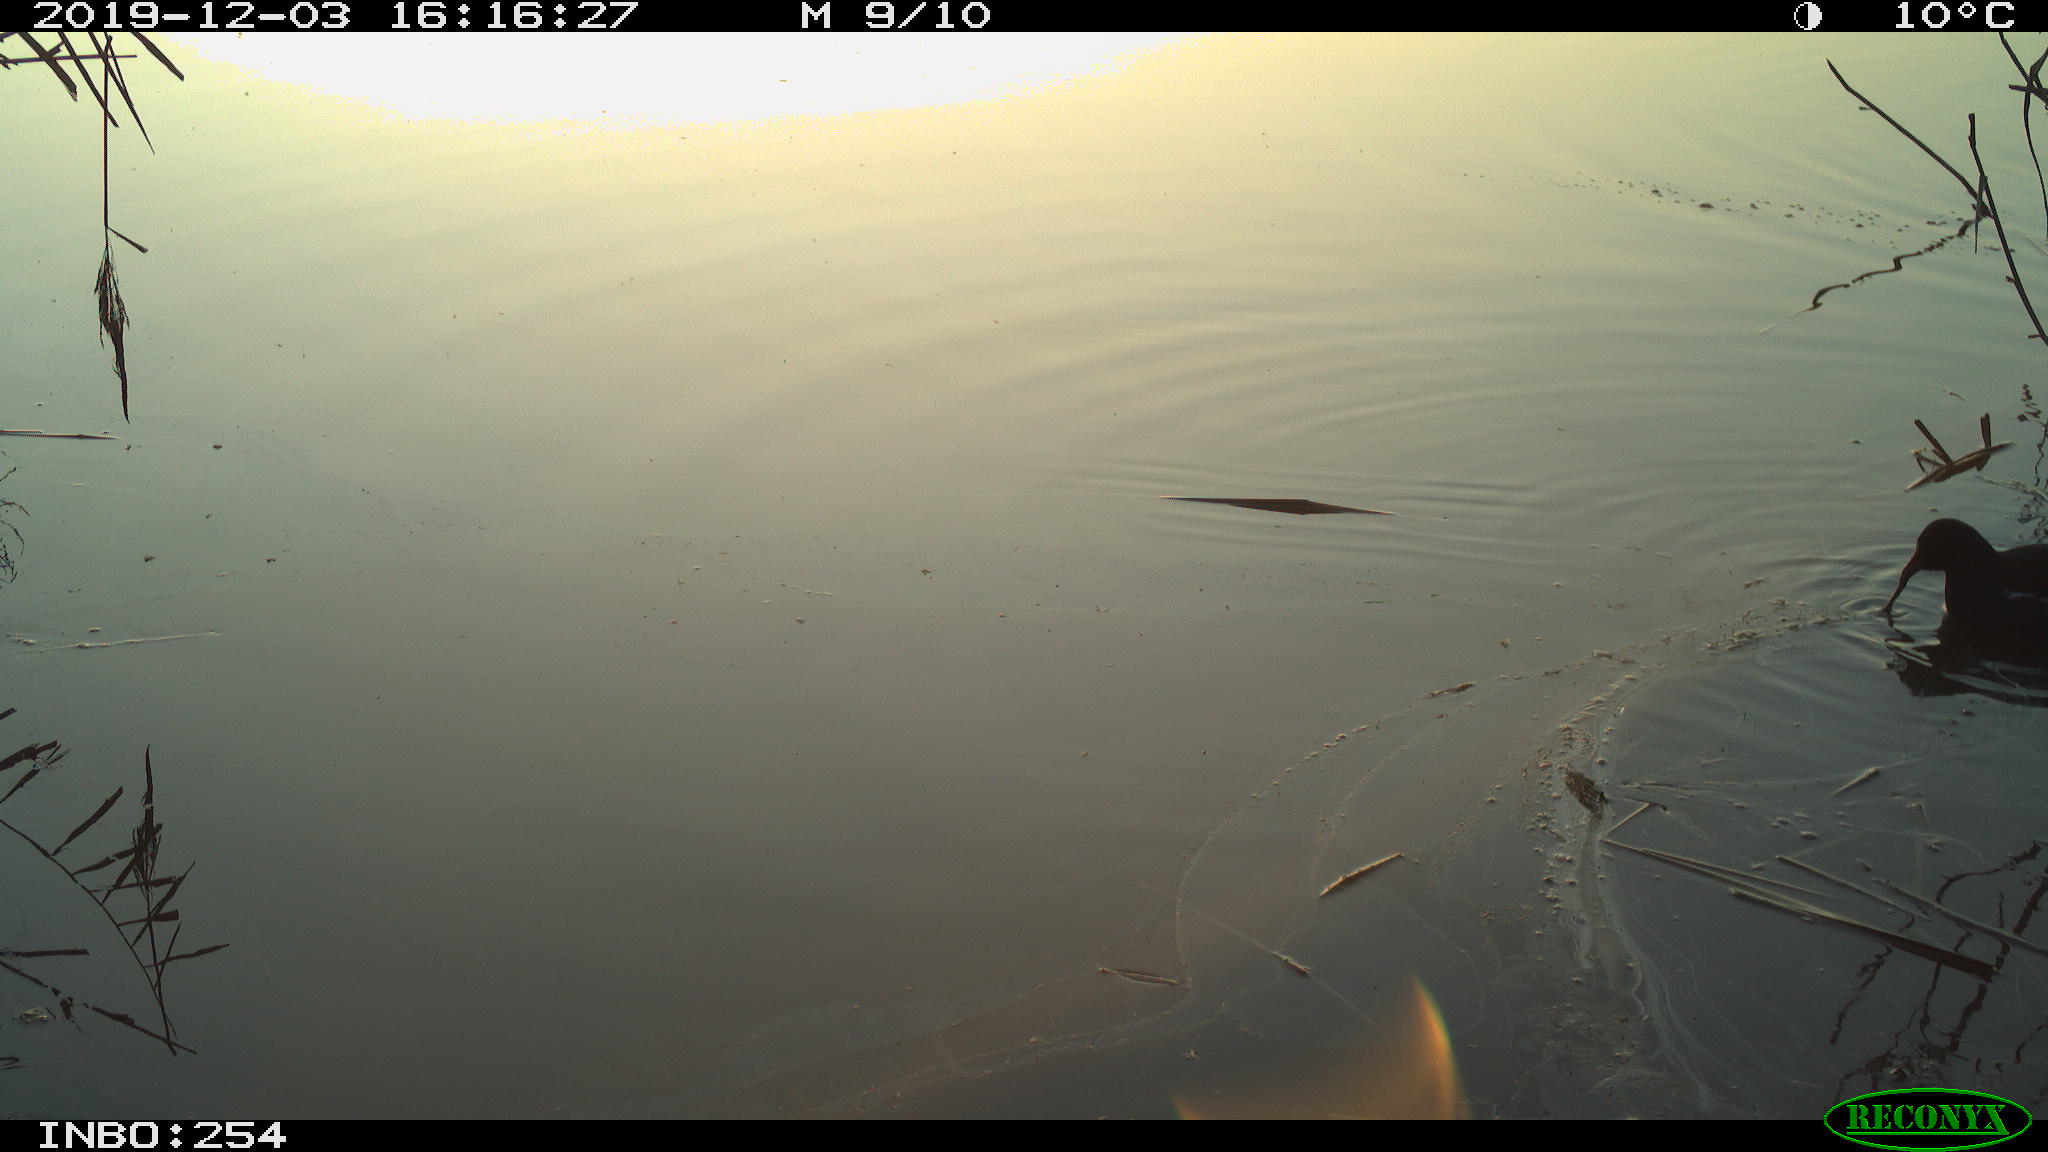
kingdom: Animalia
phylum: Chordata
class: Aves
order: Gruiformes
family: Rallidae
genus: Gallinula
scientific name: Gallinula chloropus
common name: Common moorhen
